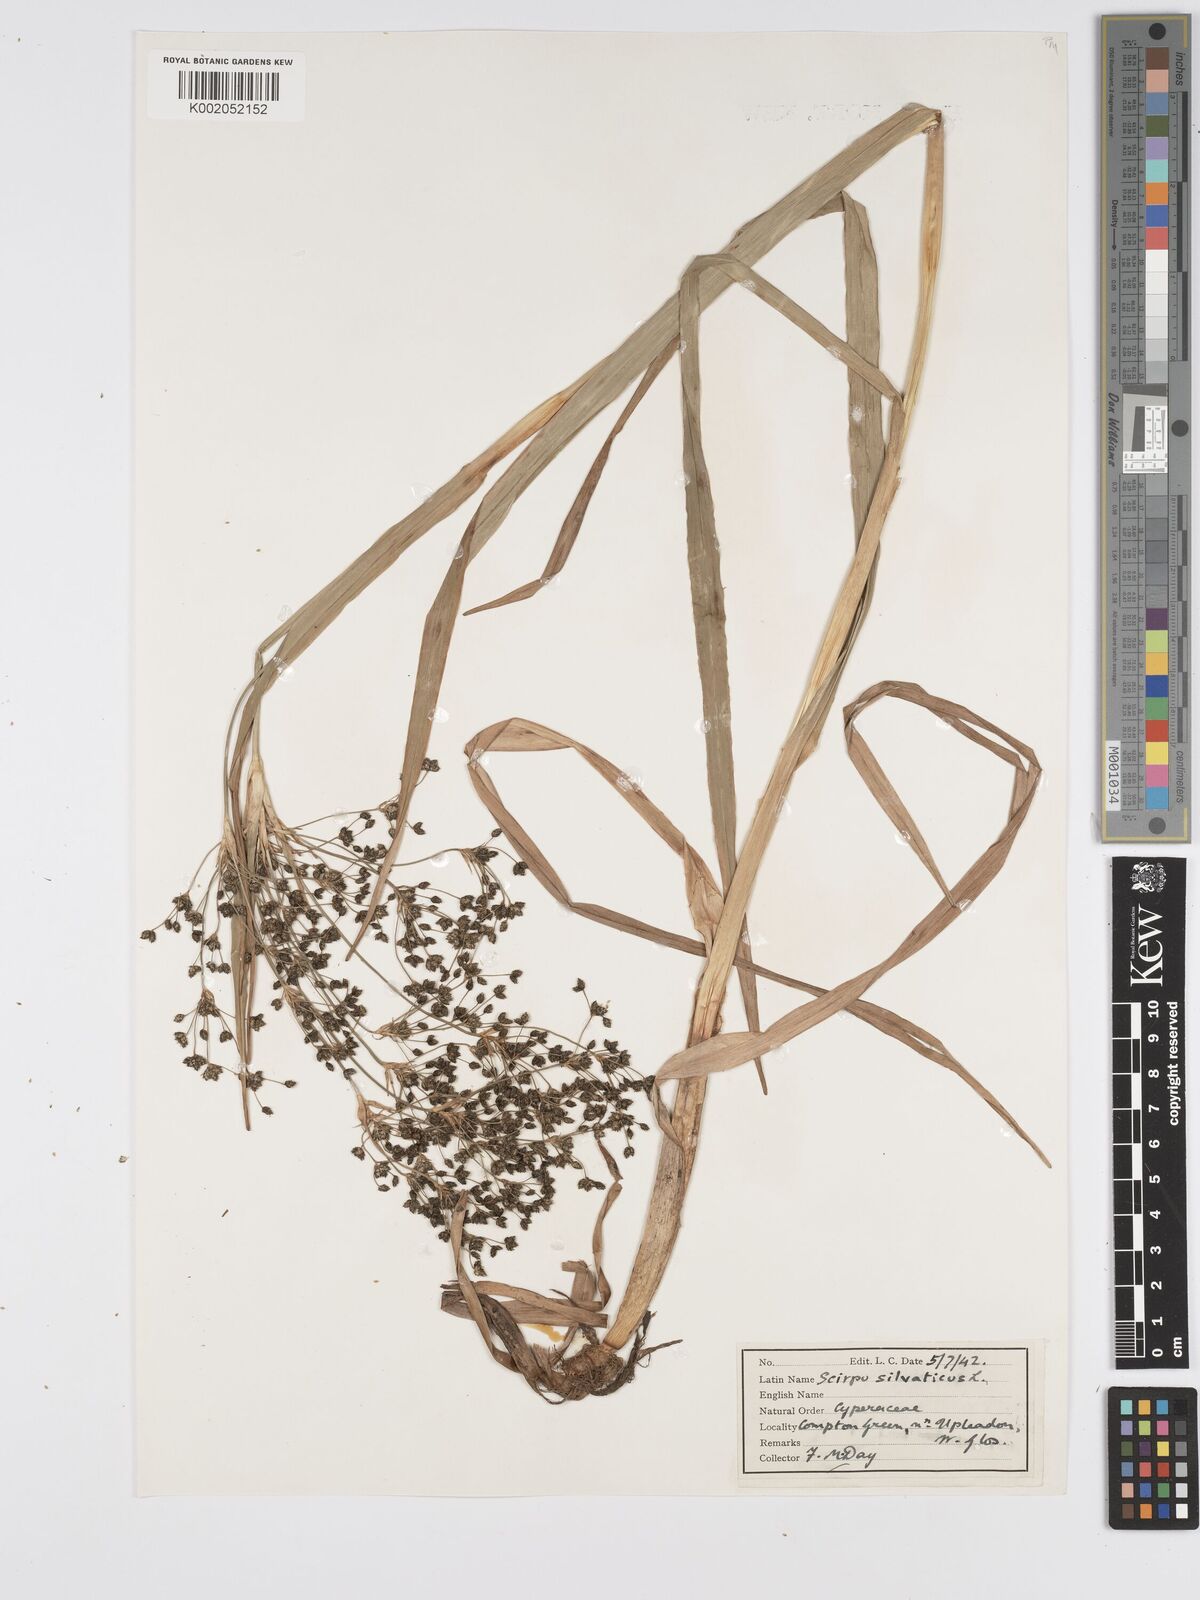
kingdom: Plantae
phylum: Tracheophyta
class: Liliopsida
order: Poales
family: Cyperaceae
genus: Scirpus
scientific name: Scirpus sylvaticus
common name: Wood club-rush
